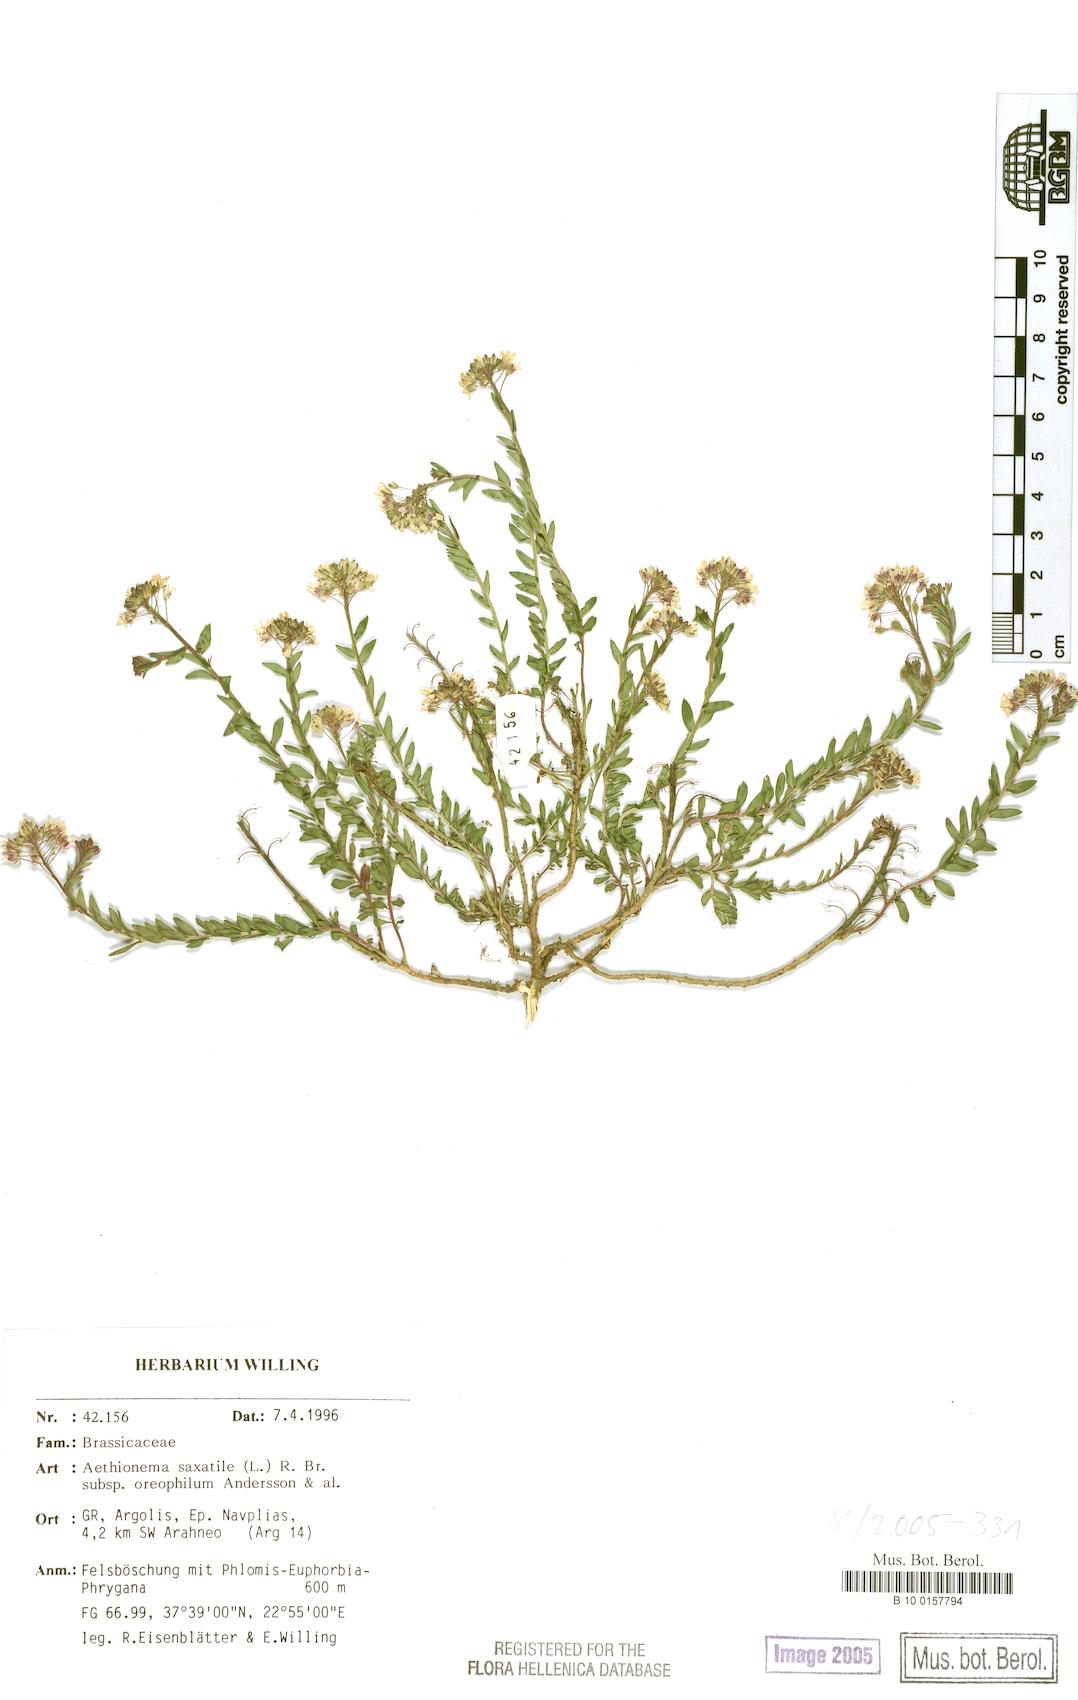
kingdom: Plantae
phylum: Tracheophyta
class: Magnoliopsida
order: Brassicales
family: Brassicaceae
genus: Aethionema
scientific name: Aethionema saxatile
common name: Burnt candytuft
